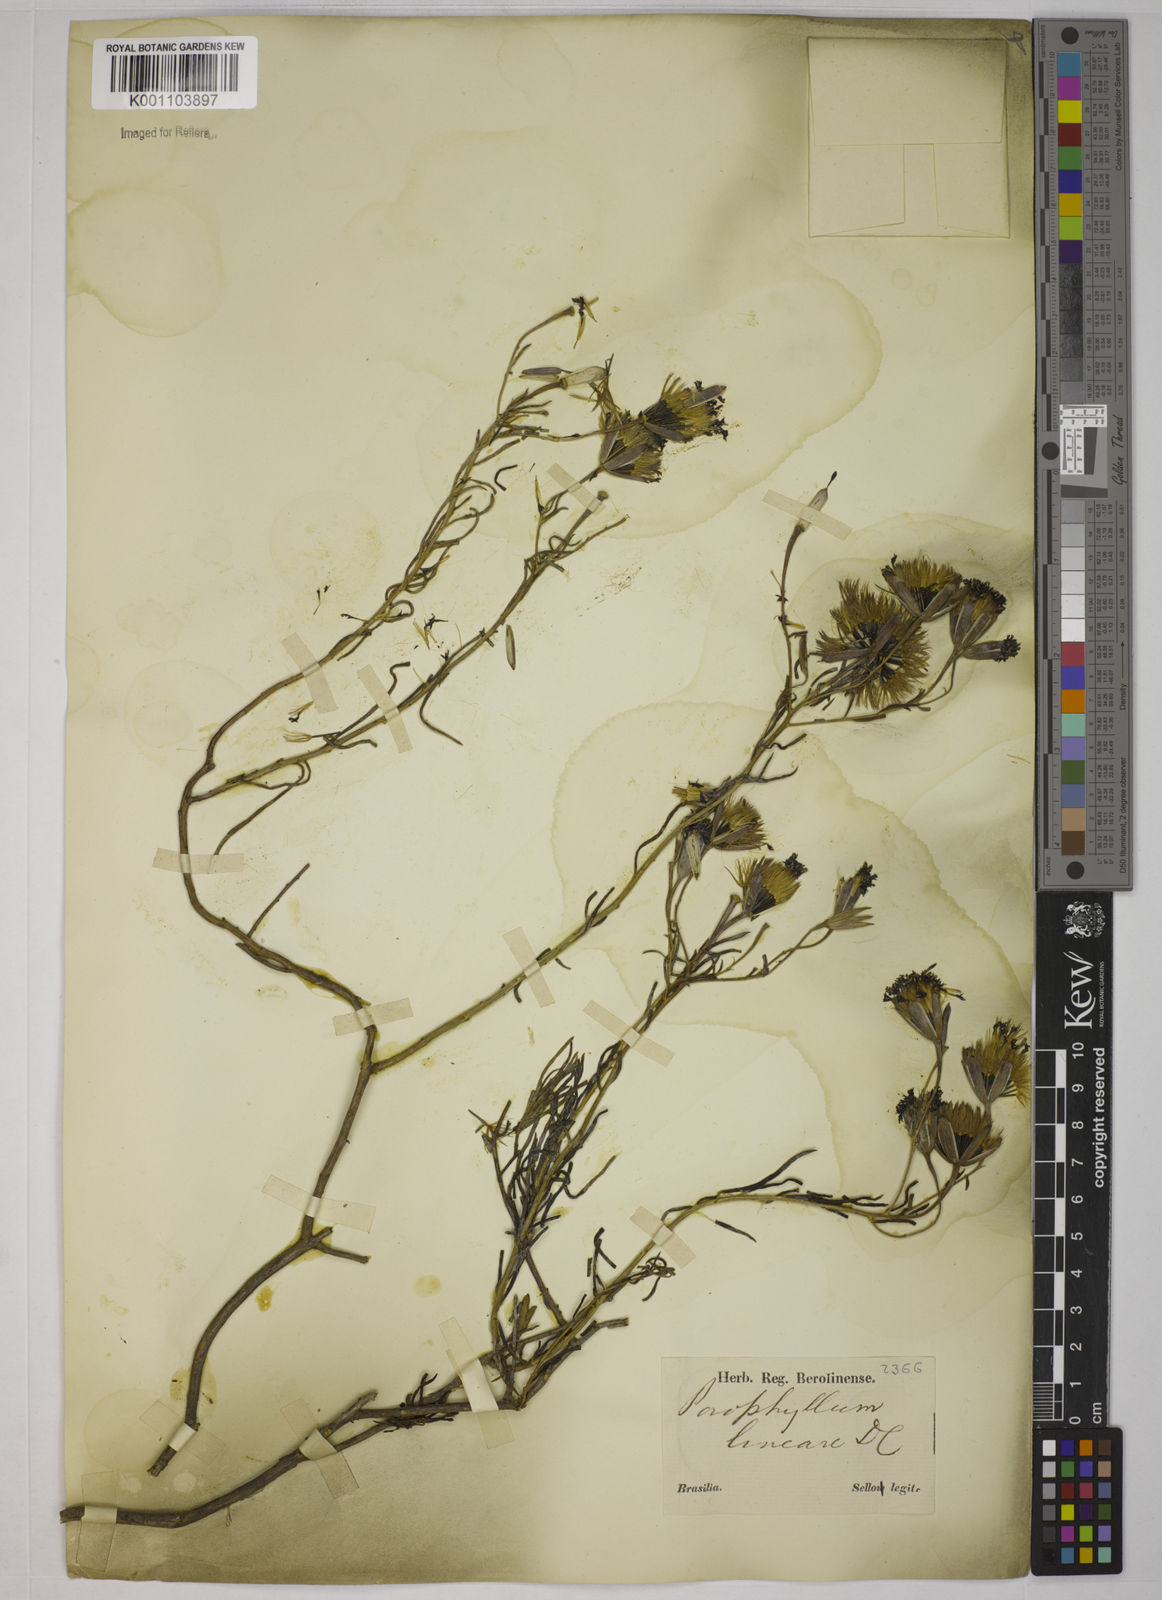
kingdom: Plantae
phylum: Tracheophyta
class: Magnoliopsida
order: Asterales
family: Asteraceae
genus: Porophyllum
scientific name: Porophyllum obscurum
